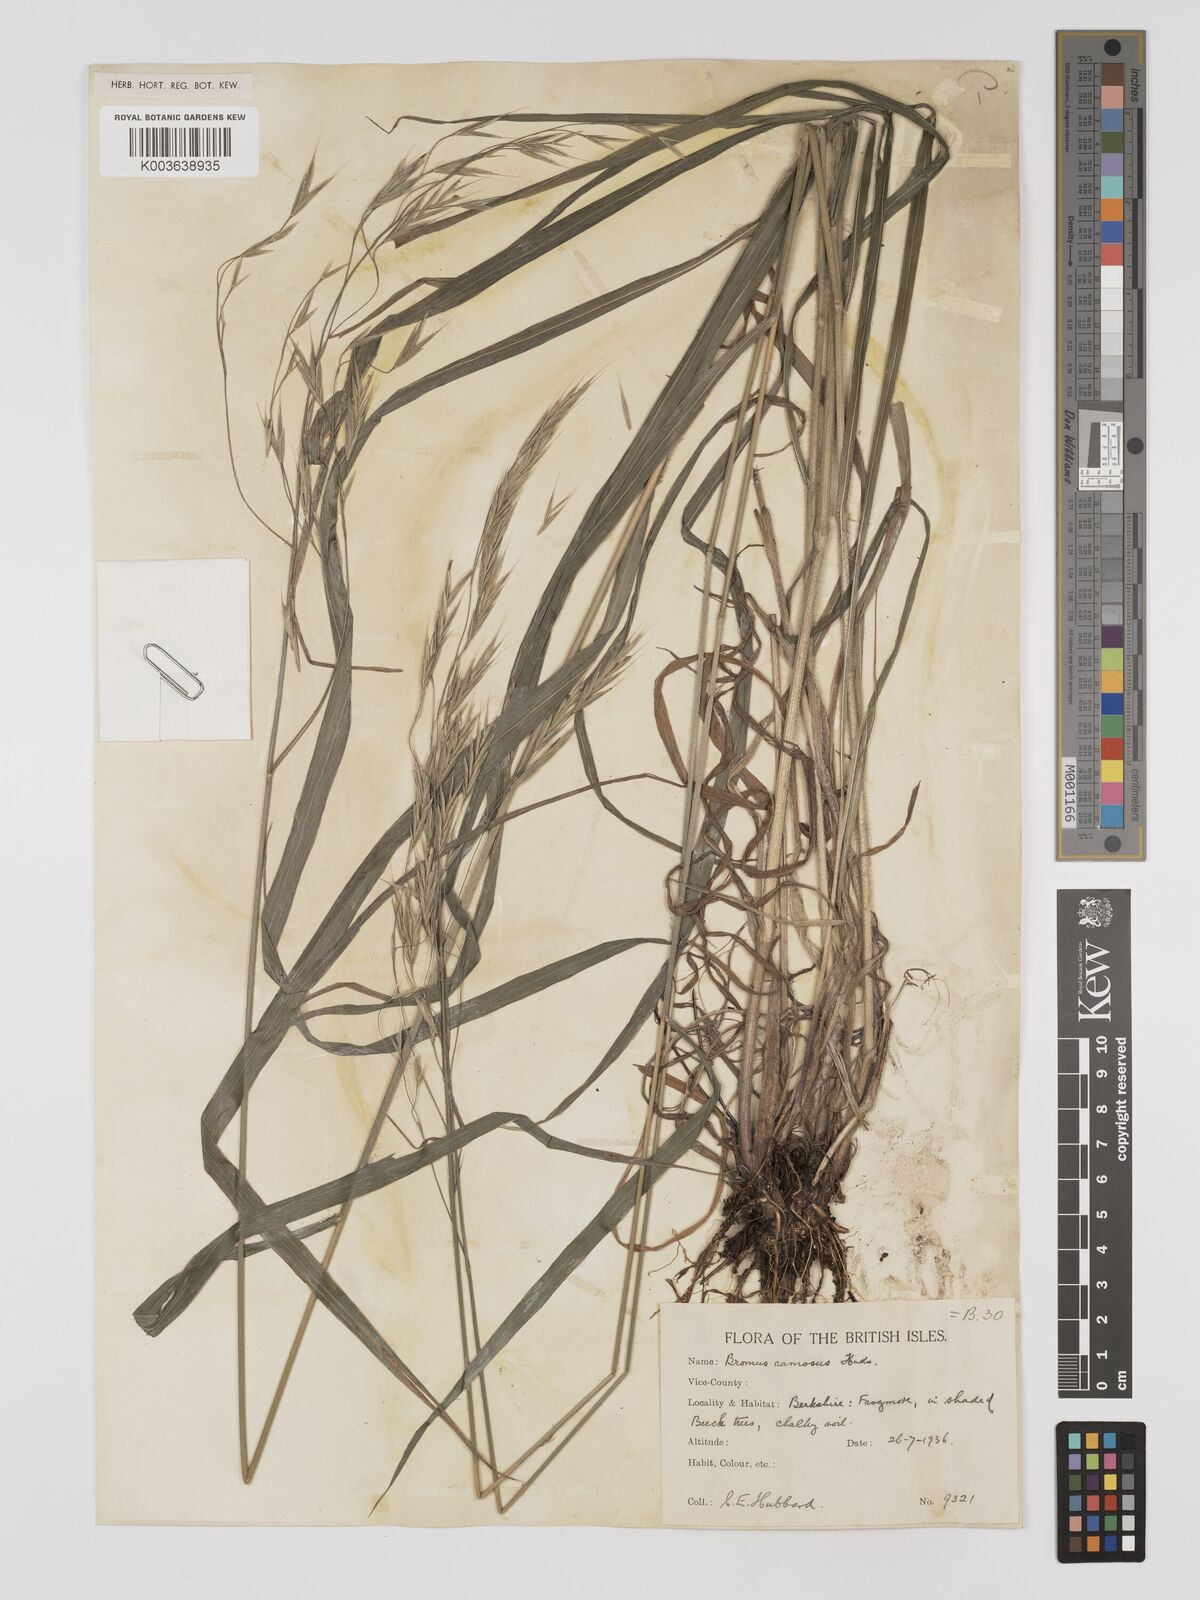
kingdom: Plantae
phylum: Tracheophyta
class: Liliopsida
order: Poales
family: Poaceae
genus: Bromus
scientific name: Bromus ramosus
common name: Hairy brome
